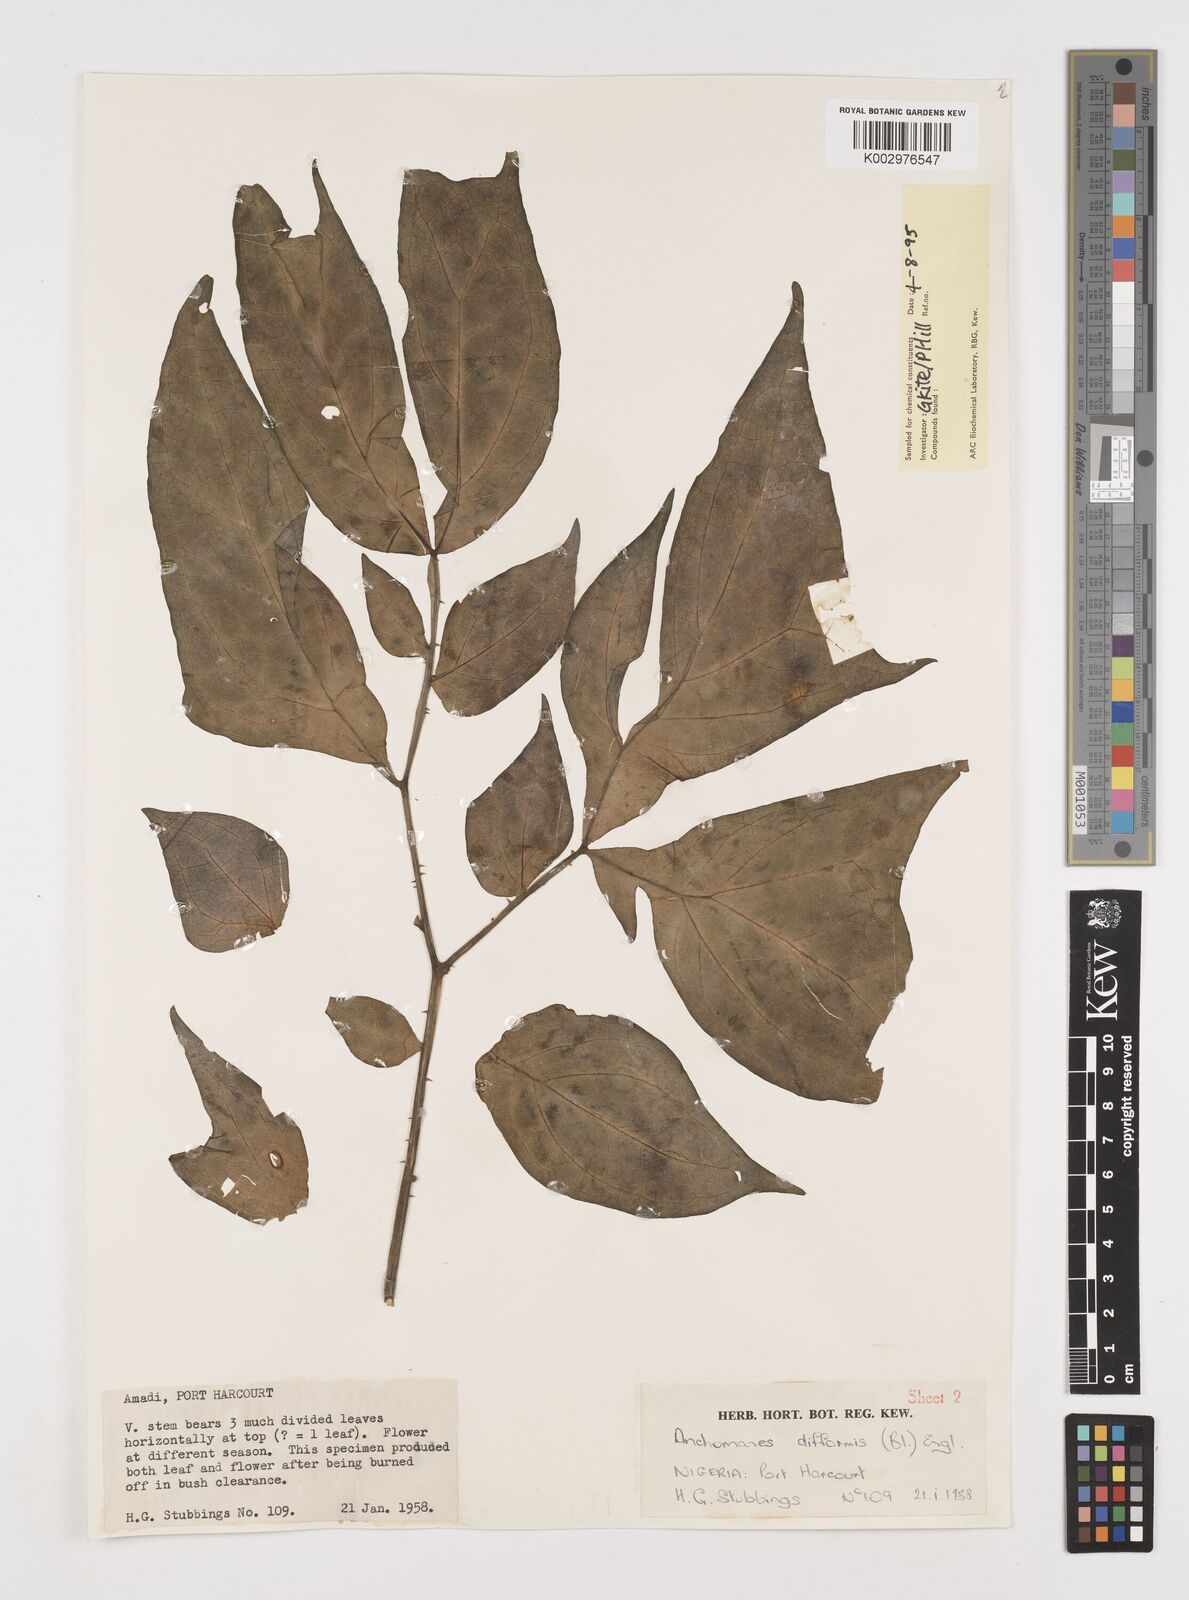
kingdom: Plantae
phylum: Tracheophyta
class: Liliopsida
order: Alismatales
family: Araceae
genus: Anchomanes
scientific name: Anchomanes difformis
